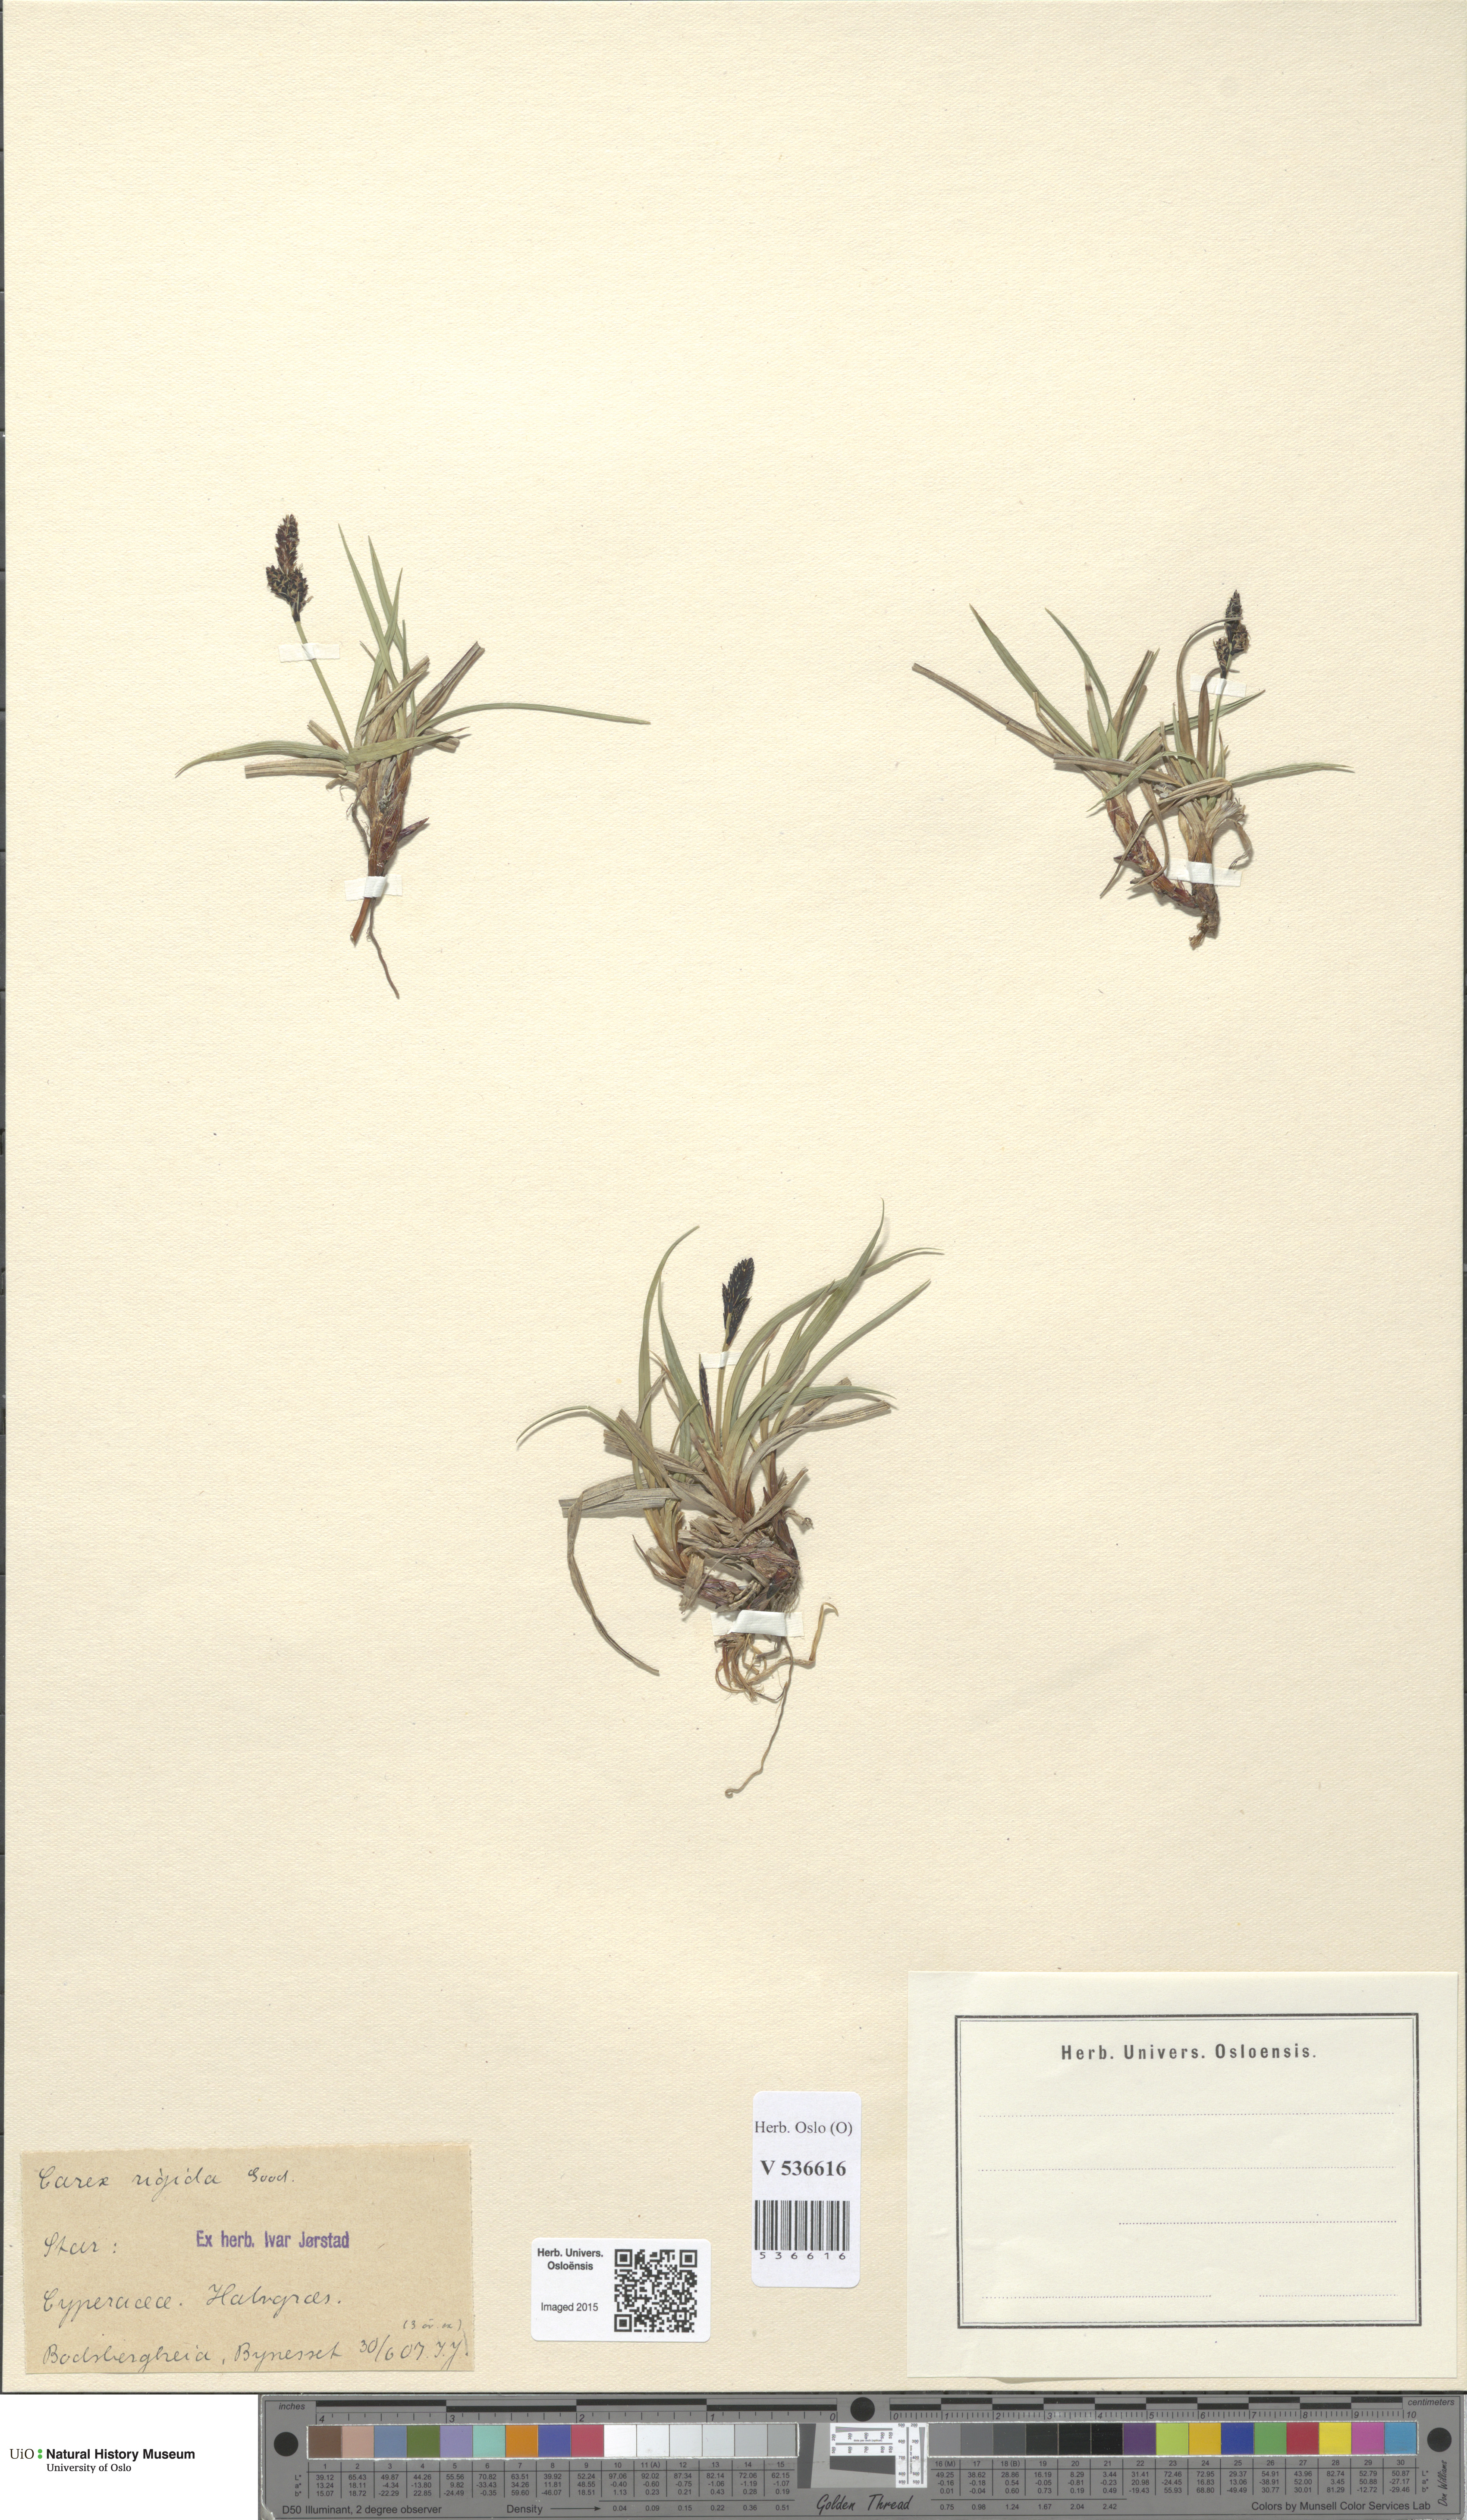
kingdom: Plantae
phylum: Tracheophyta
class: Liliopsida
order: Poales
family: Cyperaceae
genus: Carex
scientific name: Carex dacica
